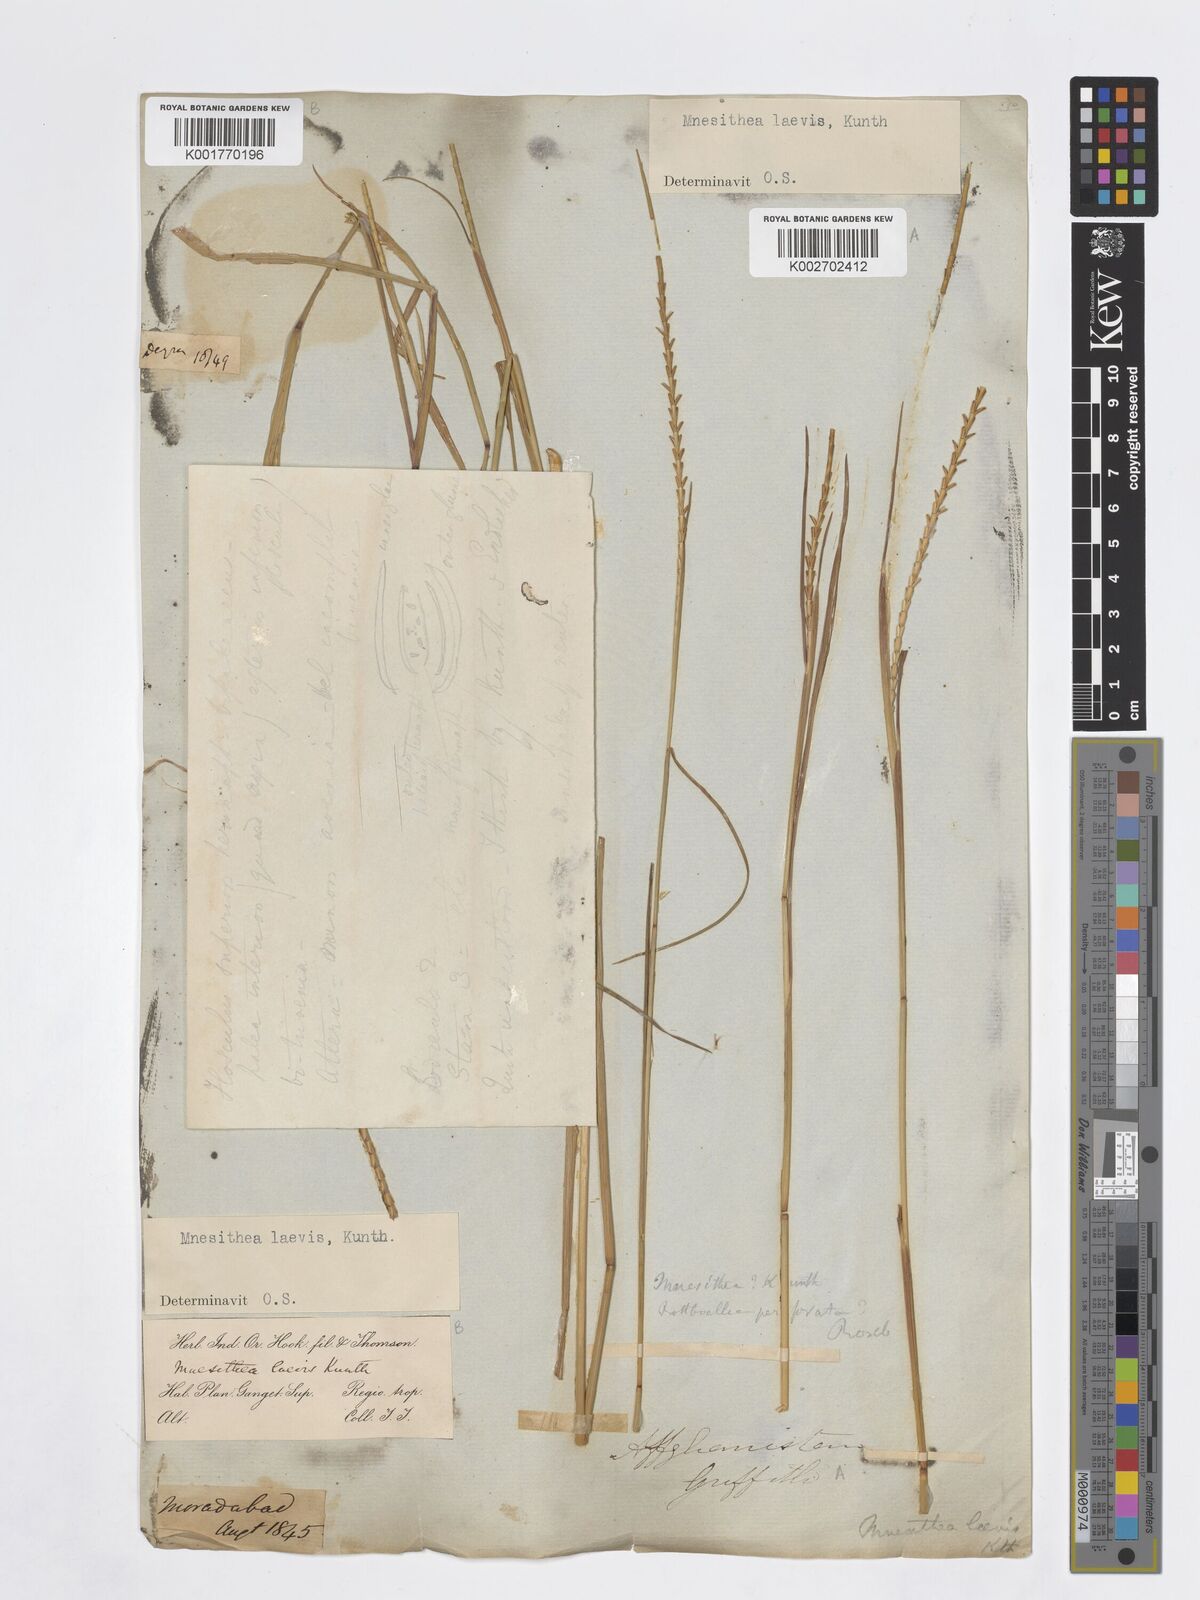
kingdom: Plantae
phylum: Tracheophyta
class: Liliopsida
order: Poales
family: Poaceae
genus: Mnesithea
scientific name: Mnesithea laevis
